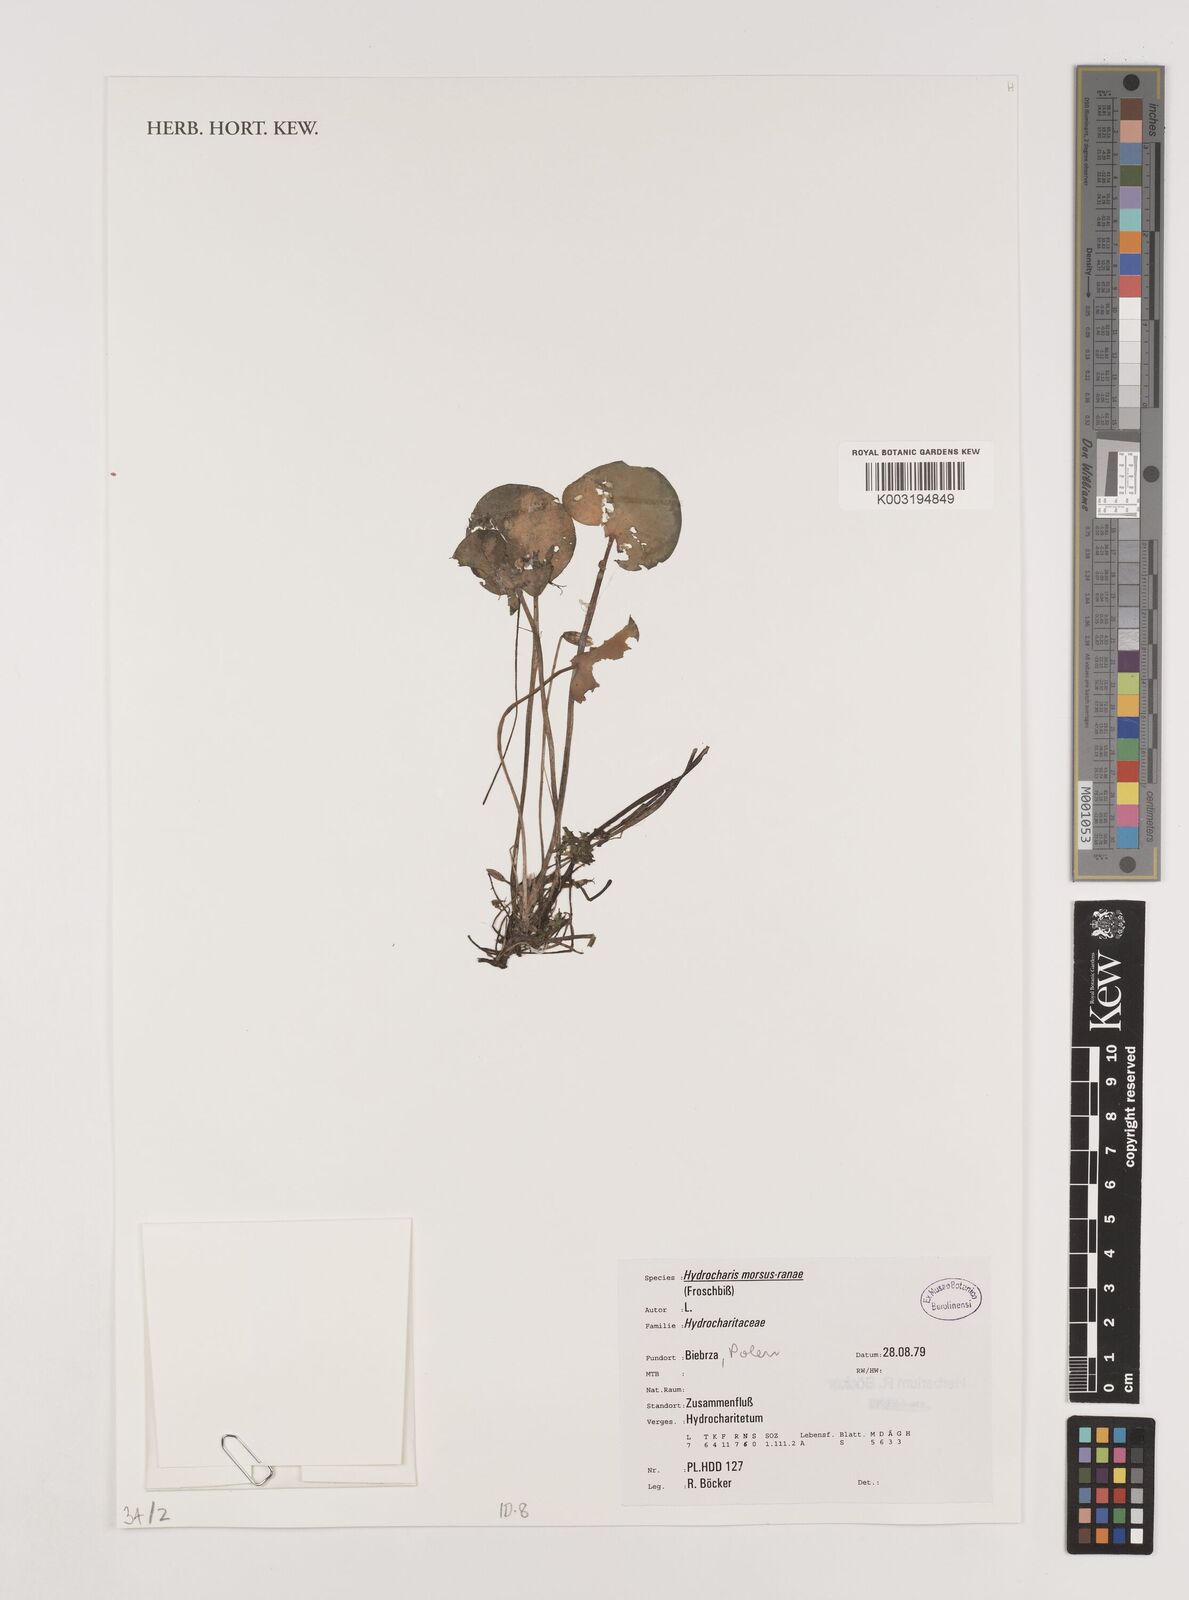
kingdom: Plantae
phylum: Tracheophyta
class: Liliopsida
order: Alismatales
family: Hydrocharitaceae
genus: Hydrocharis
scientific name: Hydrocharis morsus-ranae
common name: Frogbit
